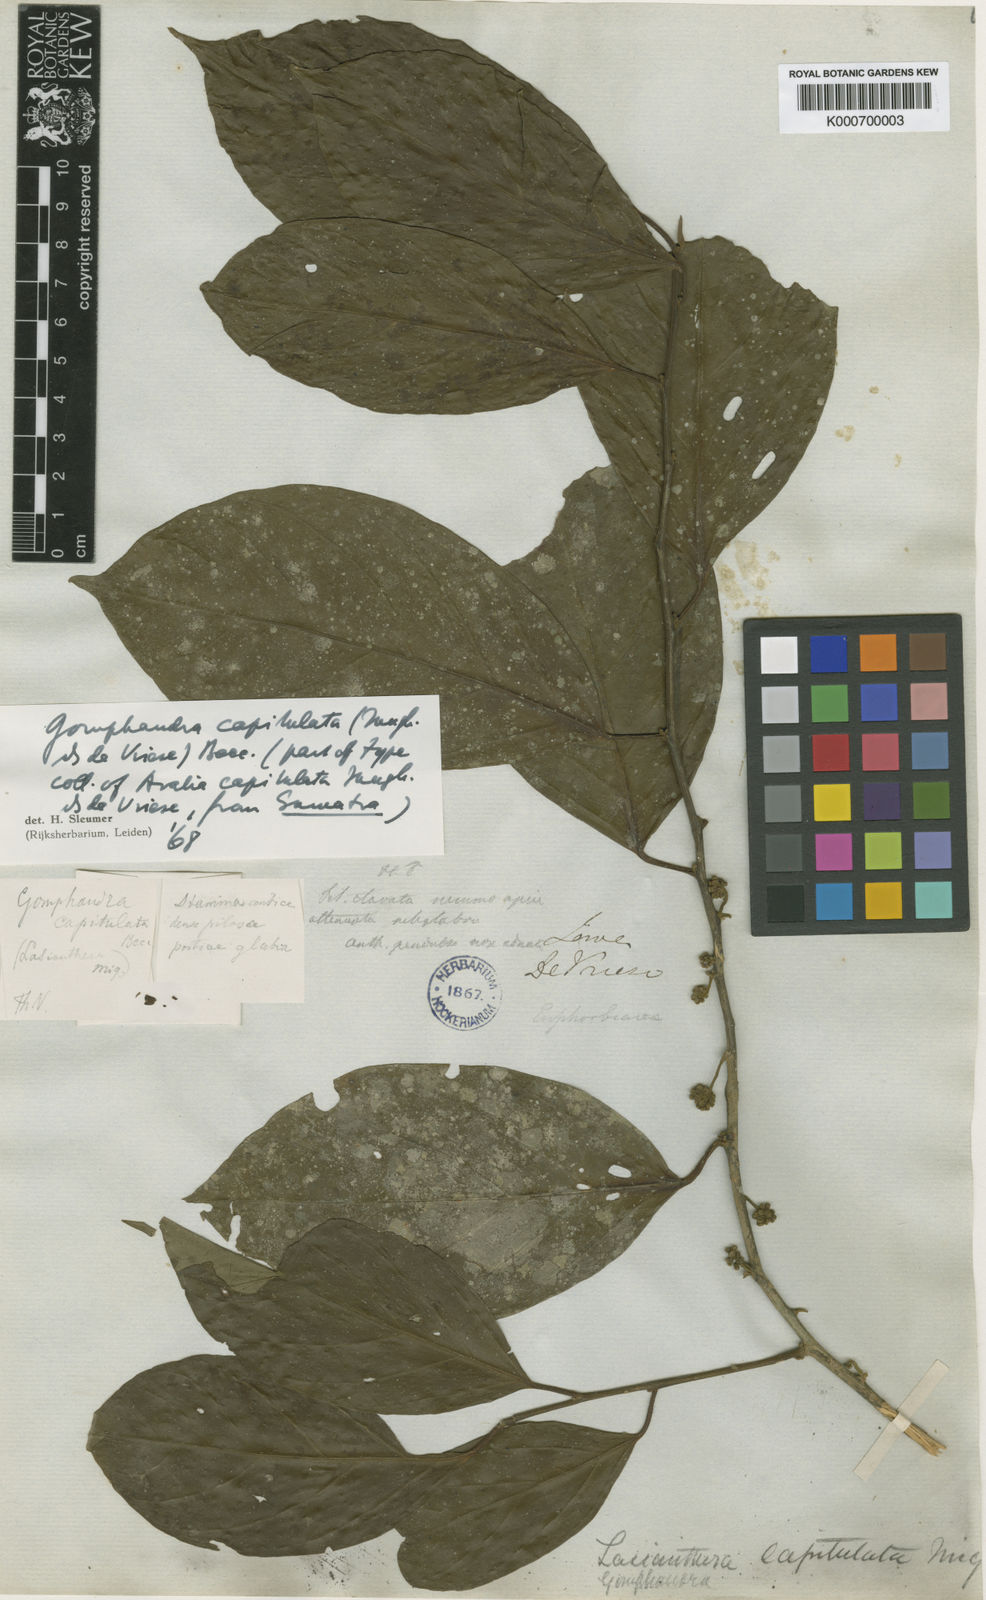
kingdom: Plantae
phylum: Tracheophyta
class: Magnoliopsida
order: Cardiopteridales
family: Stemonuraceae
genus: Gomphandra
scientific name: Gomphandra capitulata
